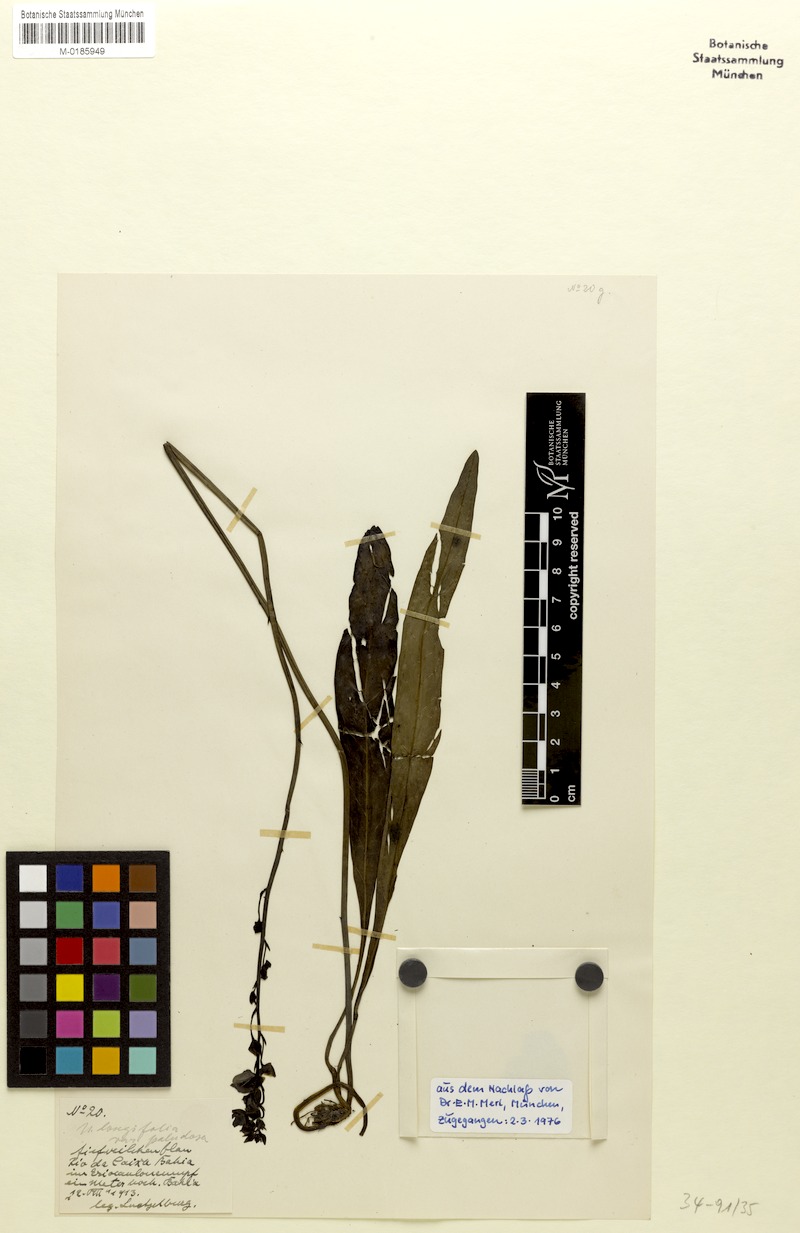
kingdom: Plantae
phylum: Tracheophyta
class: Magnoliopsida
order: Lamiales
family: Lentibulariaceae
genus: Utricularia
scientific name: Utricularia longifolia
